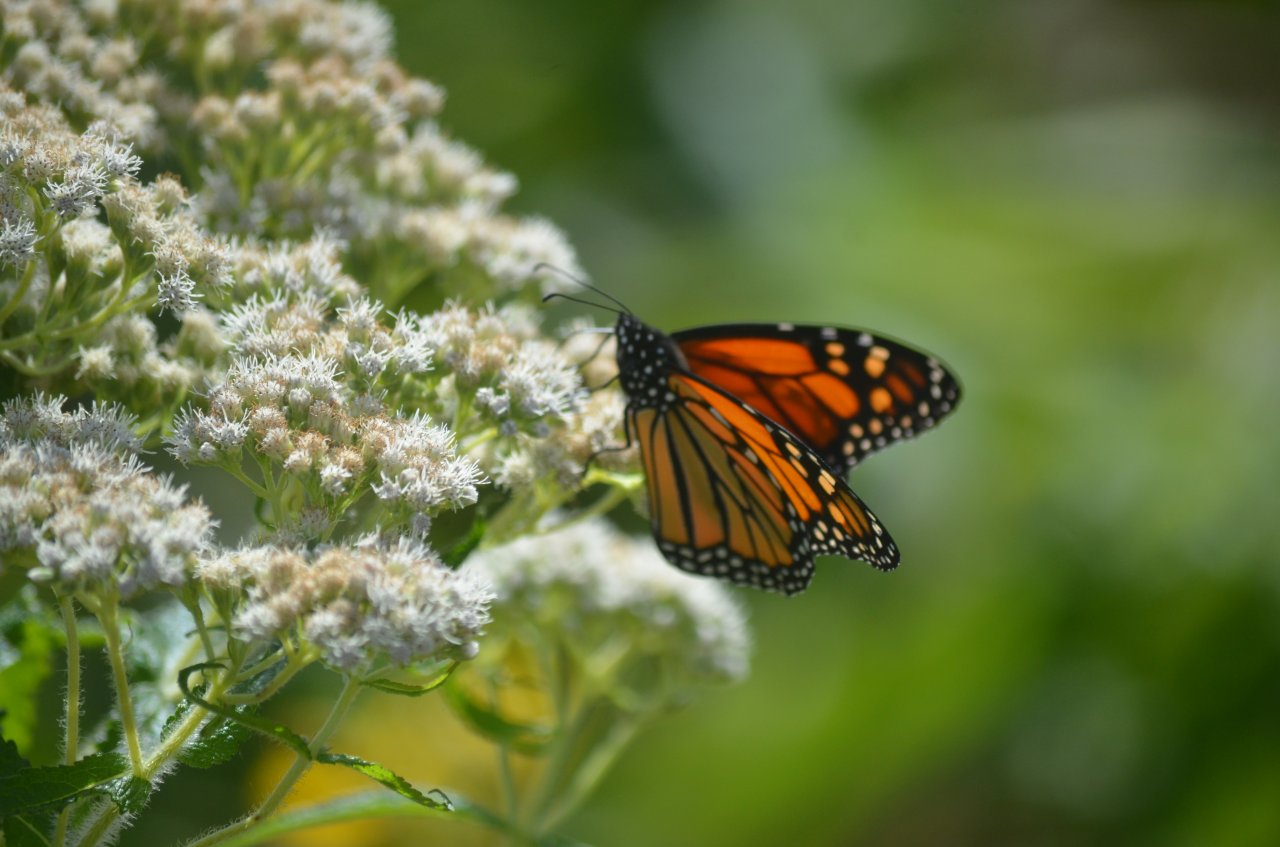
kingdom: Animalia
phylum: Arthropoda
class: Insecta
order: Lepidoptera
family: Nymphalidae
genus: Danaus
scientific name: Danaus plexippus
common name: Monarch
